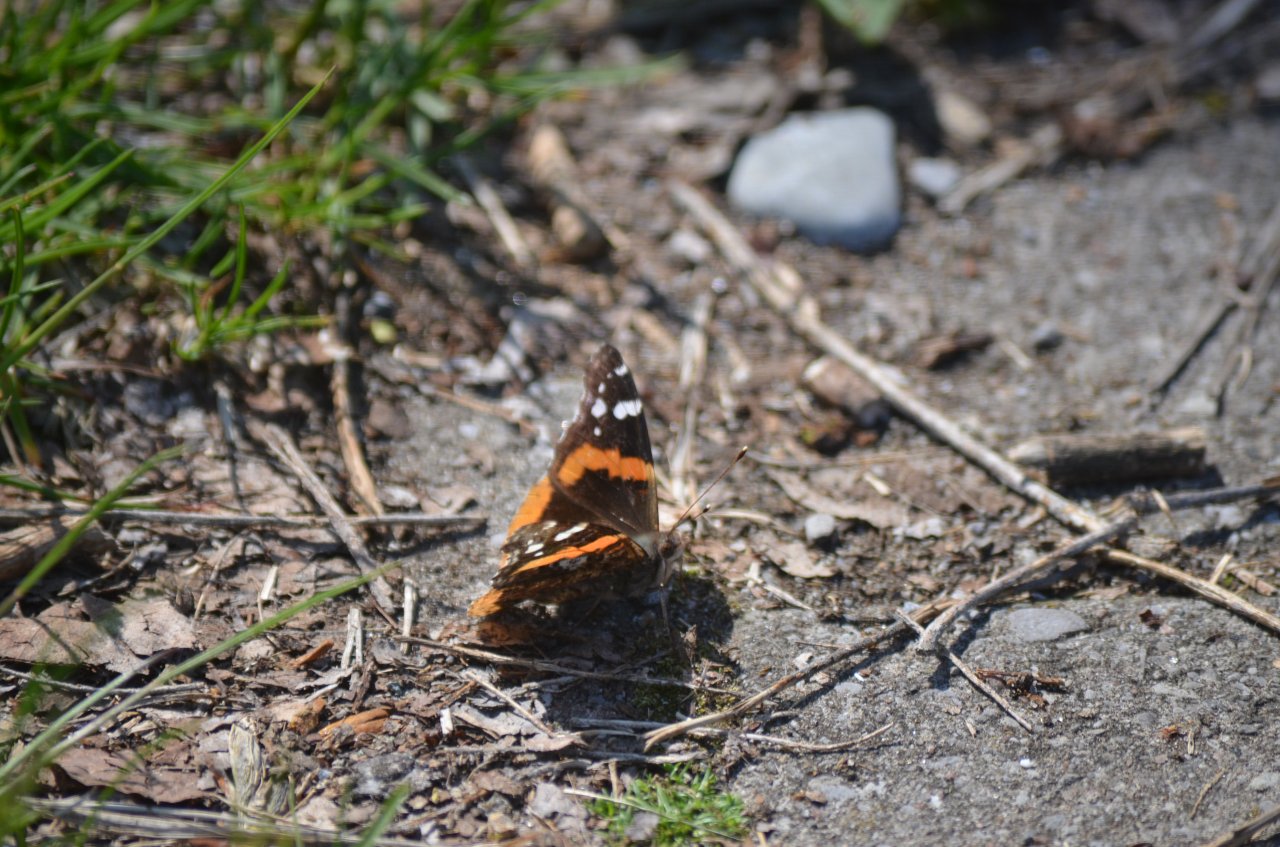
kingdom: Animalia
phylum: Arthropoda
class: Insecta
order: Lepidoptera
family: Nymphalidae
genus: Vanessa
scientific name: Vanessa atalanta
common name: Red Admiral
